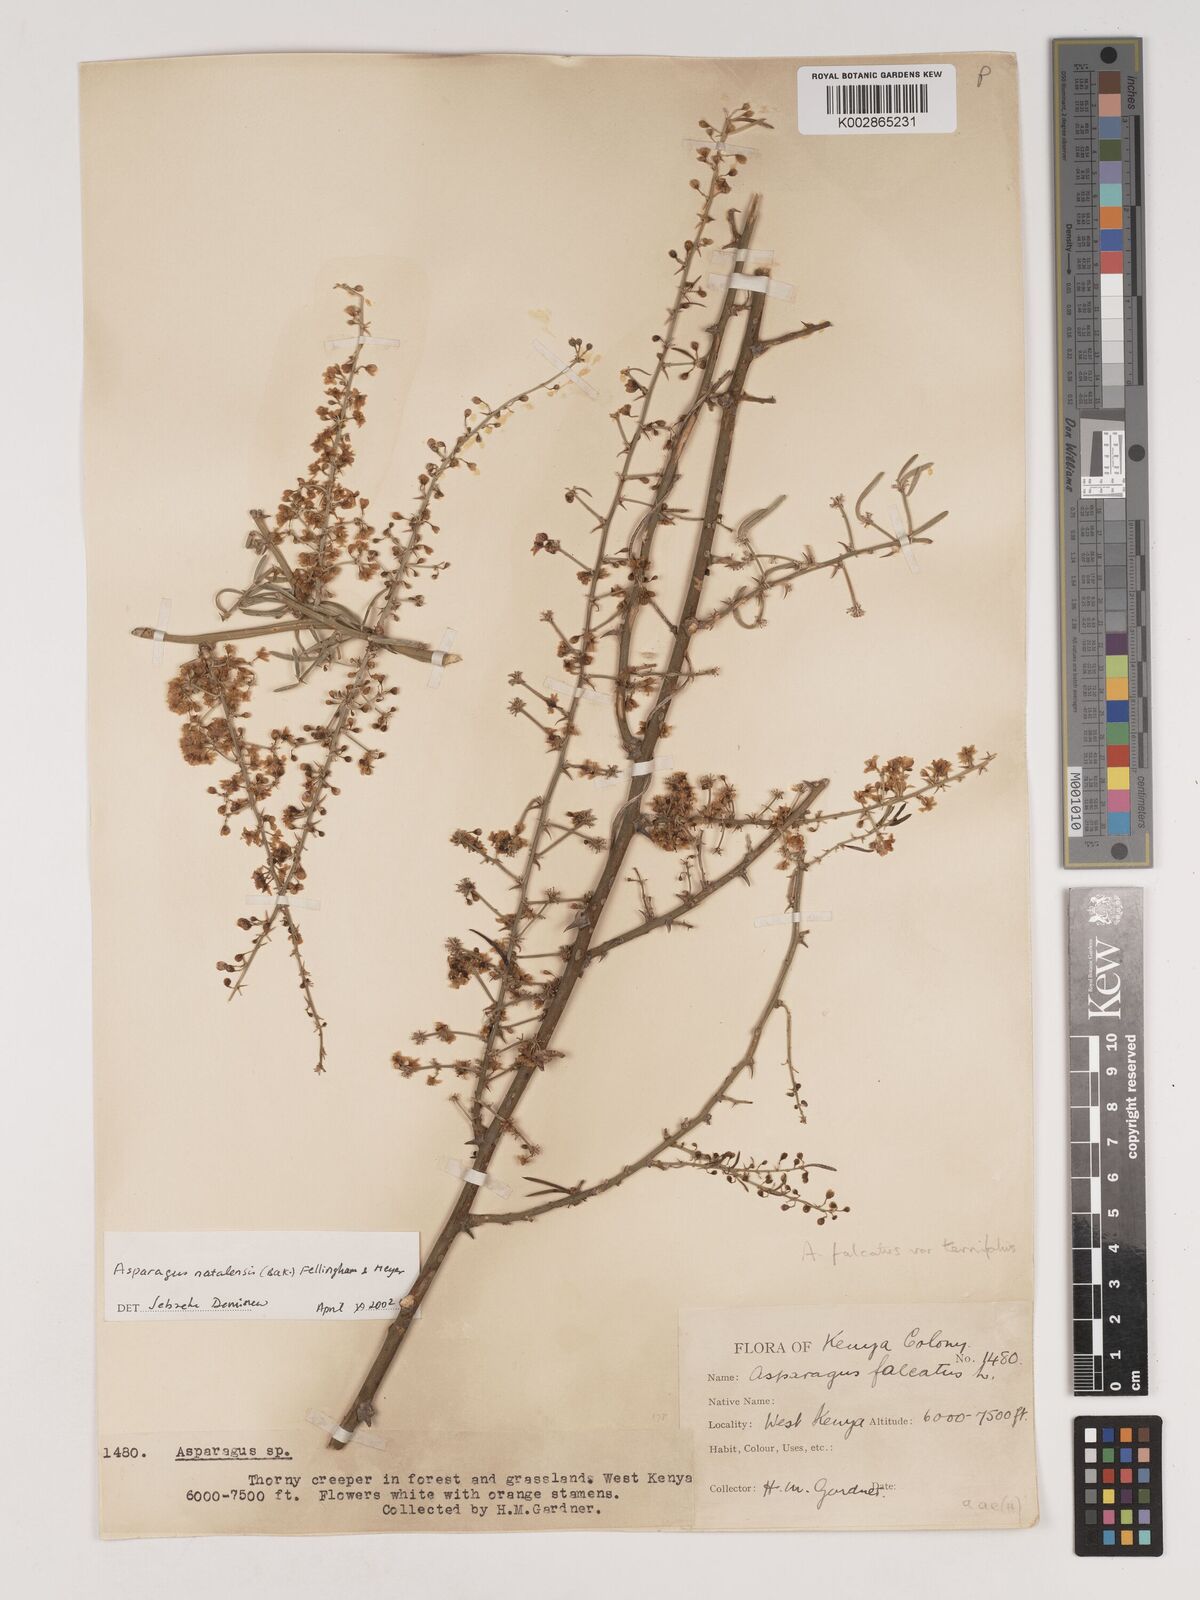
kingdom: Plantae
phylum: Tracheophyta
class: Liliopsida
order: Asparagales
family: Asparagaceae
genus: Asparagus
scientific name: Asparagus natalensis
